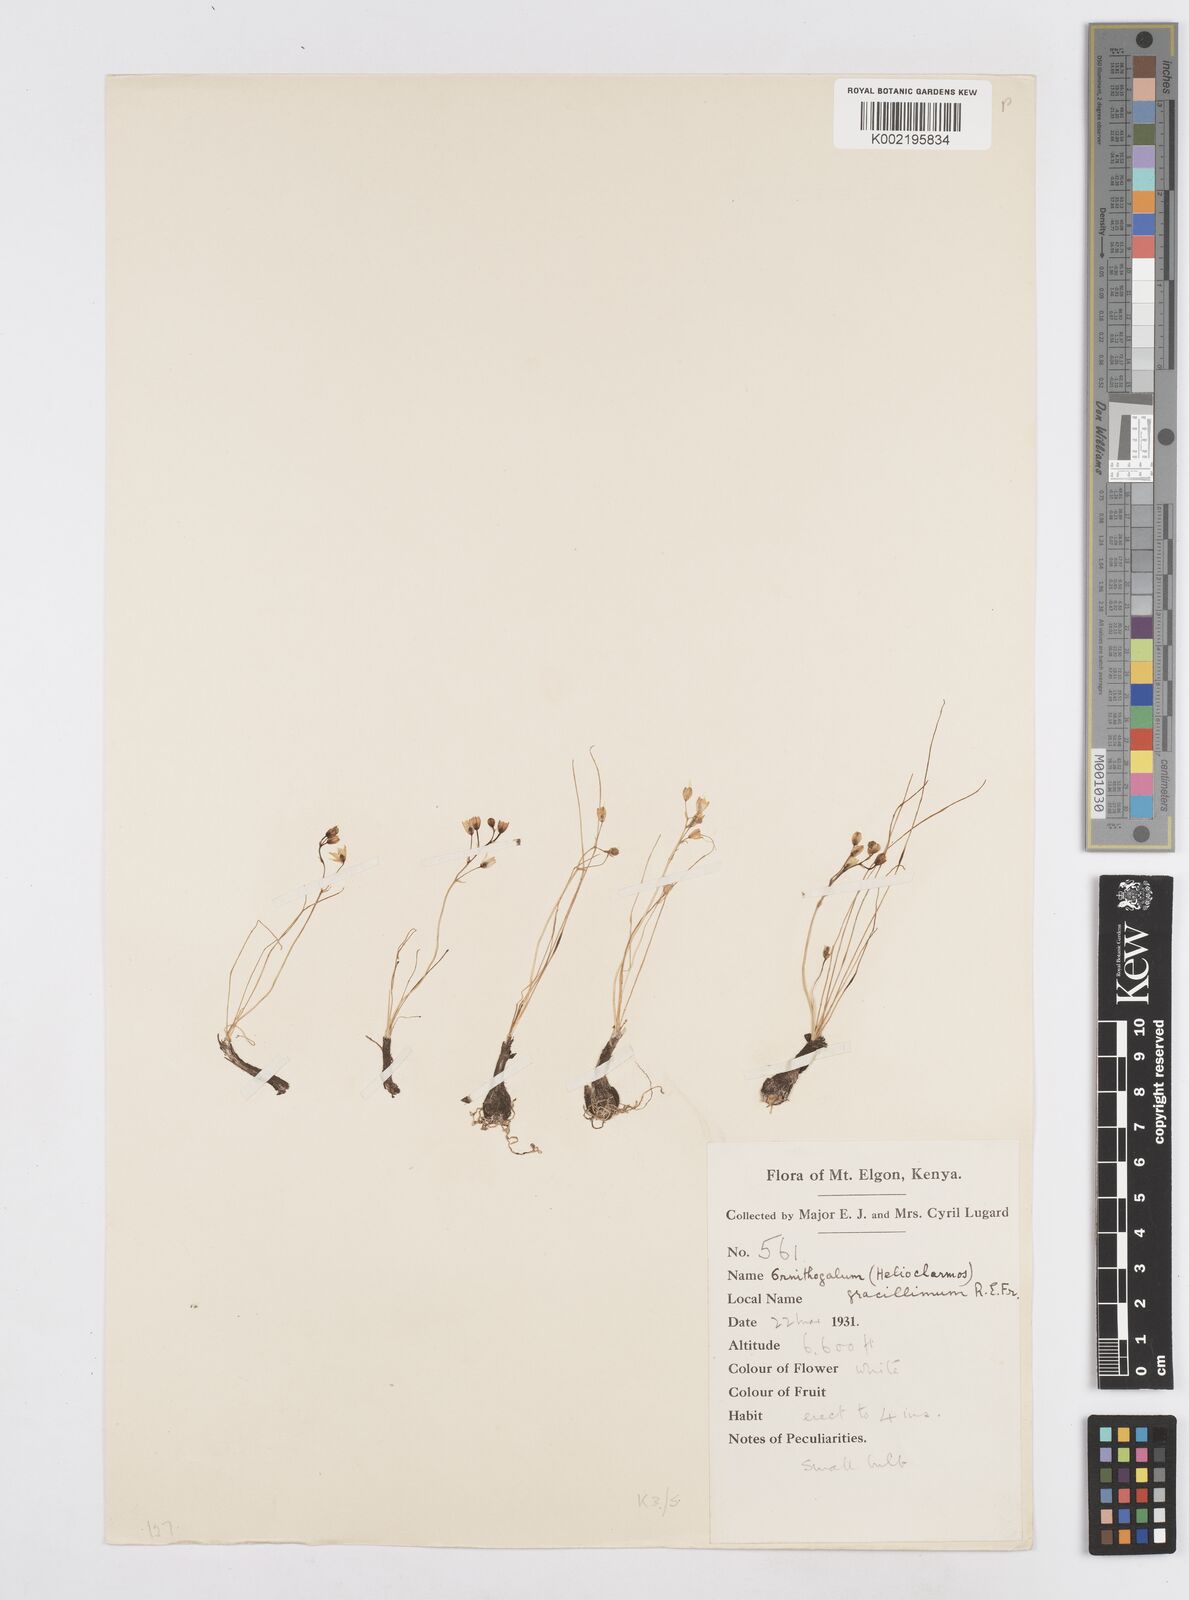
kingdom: Plantae
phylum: Tracheophyta
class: Liliopsida
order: Asparagales
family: Asparagaceae
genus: Ornithogalum
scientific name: Ornithogalum gracillimum
